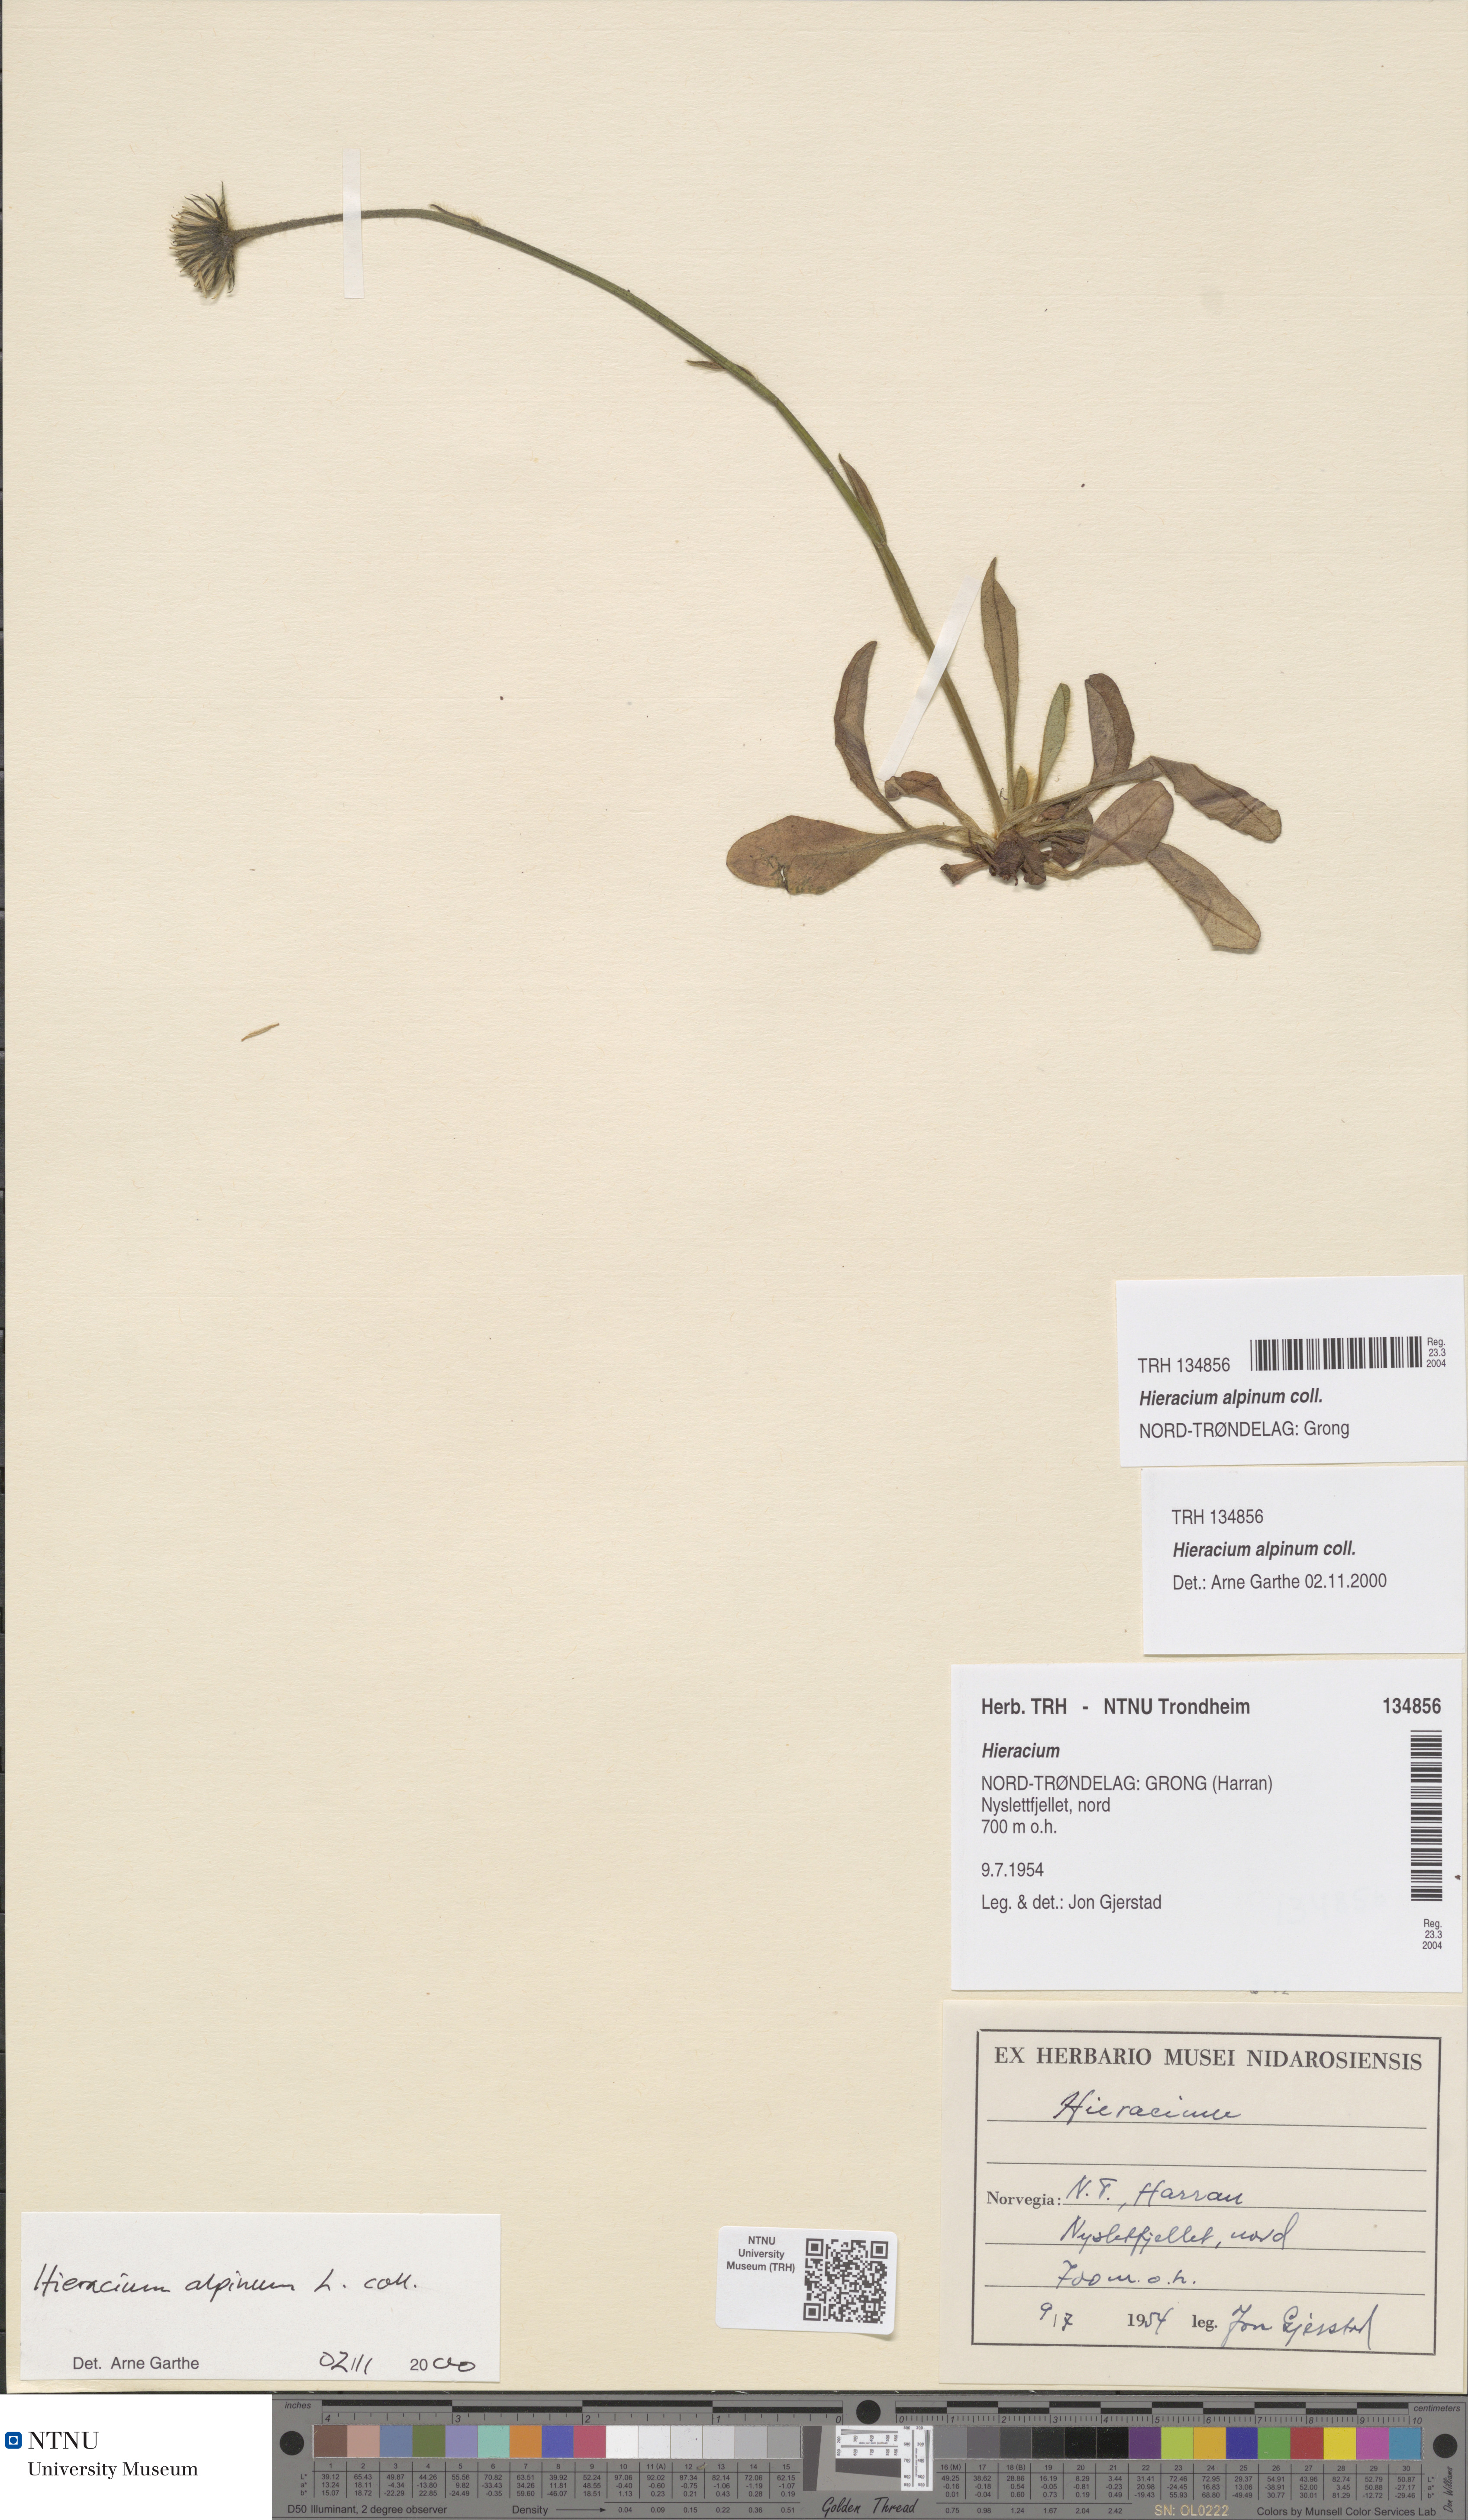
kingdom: Plantae
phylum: Tracheophyta
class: Magnoliopsida
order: Asterales
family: Asteraceae
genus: Hieracium
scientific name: Hieracium alpinum
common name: Alpine hawkweed
